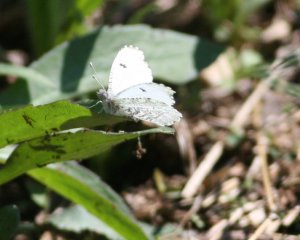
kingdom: Animalia
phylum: Arthropoda
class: Insecta
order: Lepidoptera
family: Pieridae
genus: Anthocharis
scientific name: Anthocharis midea
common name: Falcate Orangetip
